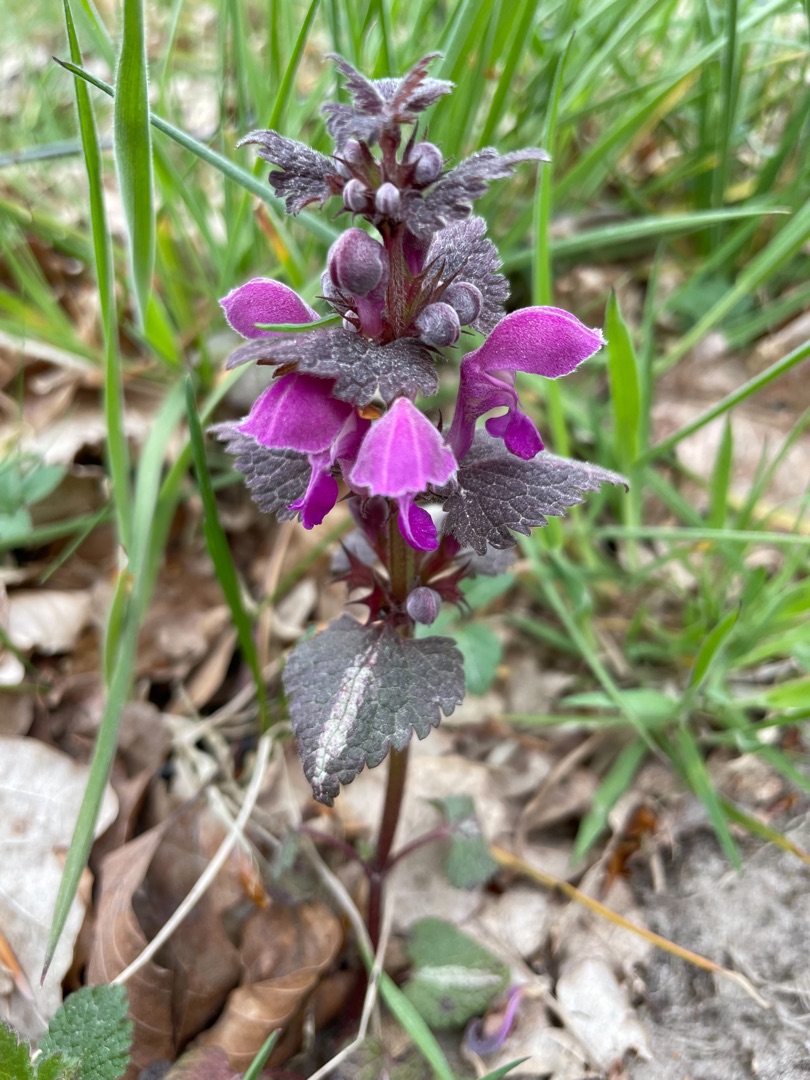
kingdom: Plantae
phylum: Tracheophyta
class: Magnoliopsida
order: Lamiales
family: Lamiaceae
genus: Lamium
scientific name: Lamium maculatum
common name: Plettet tvetand
